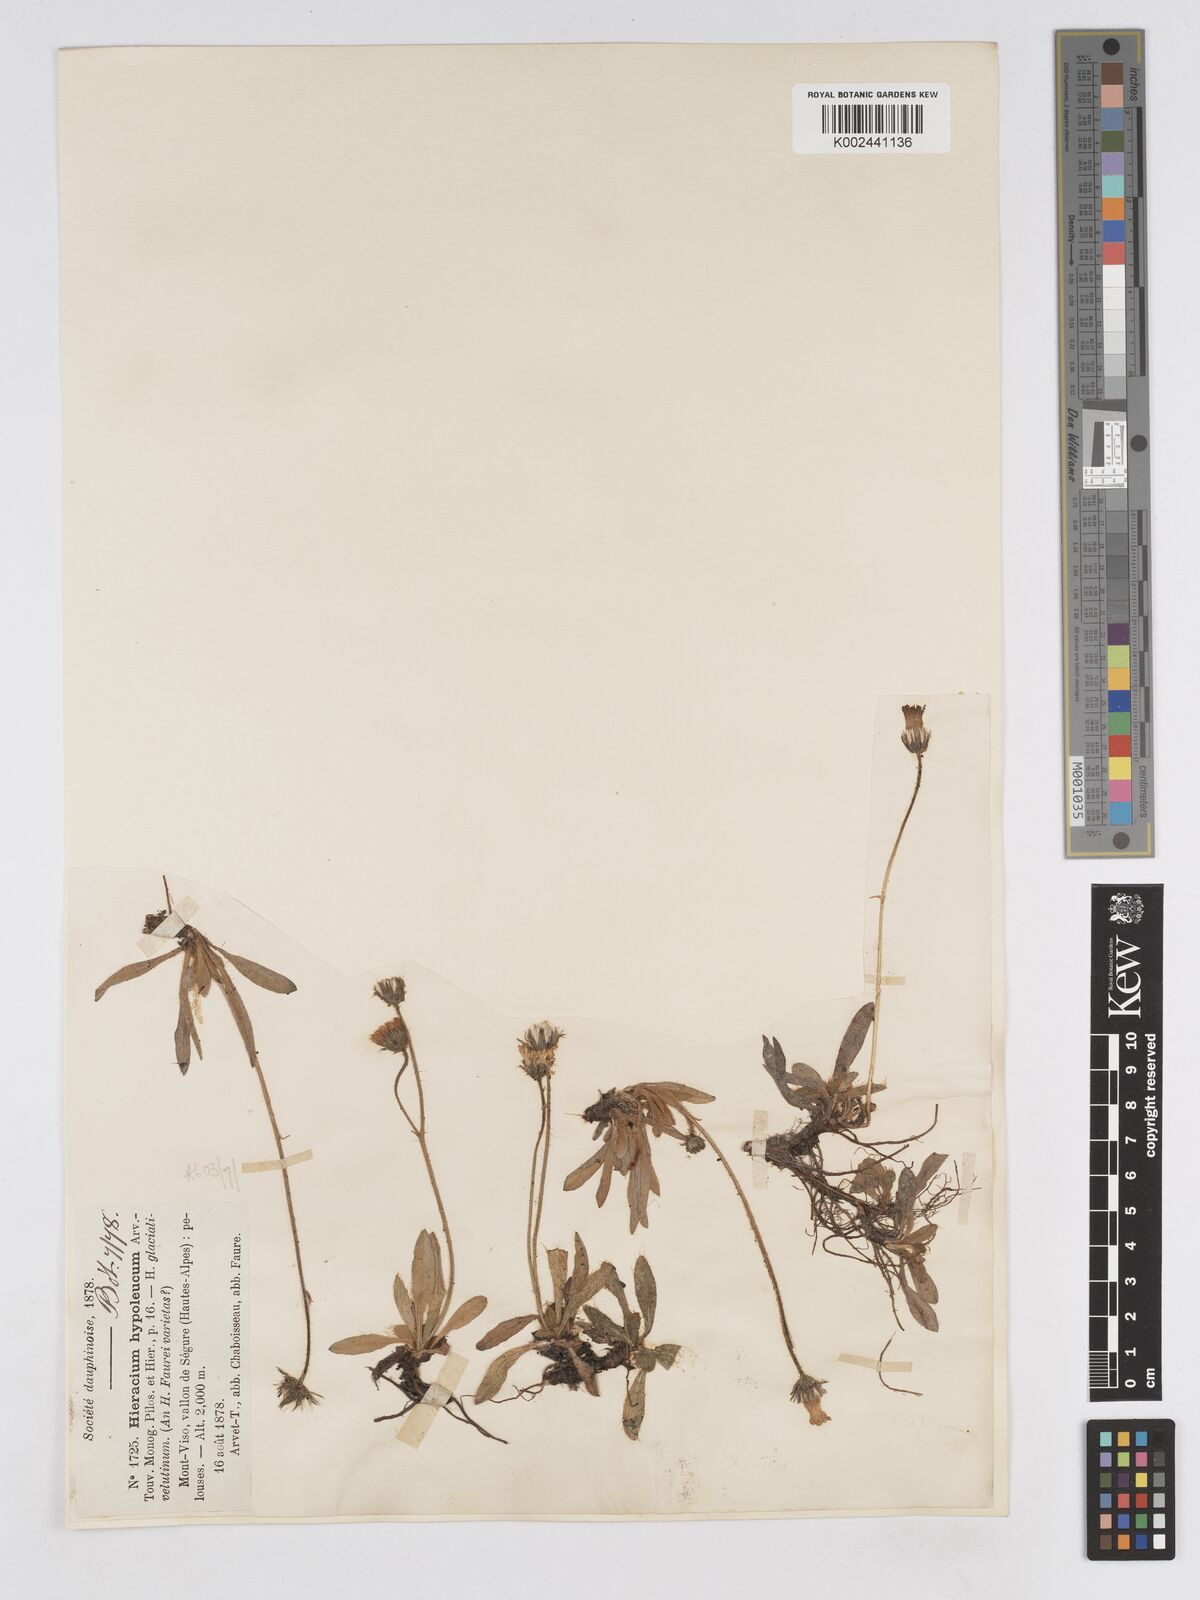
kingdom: Plantae
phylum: Tracheophyta
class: Magnoliopsida
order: Asterales
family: Asteraceae
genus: Pilosella
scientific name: Pilosella hypoleuca
